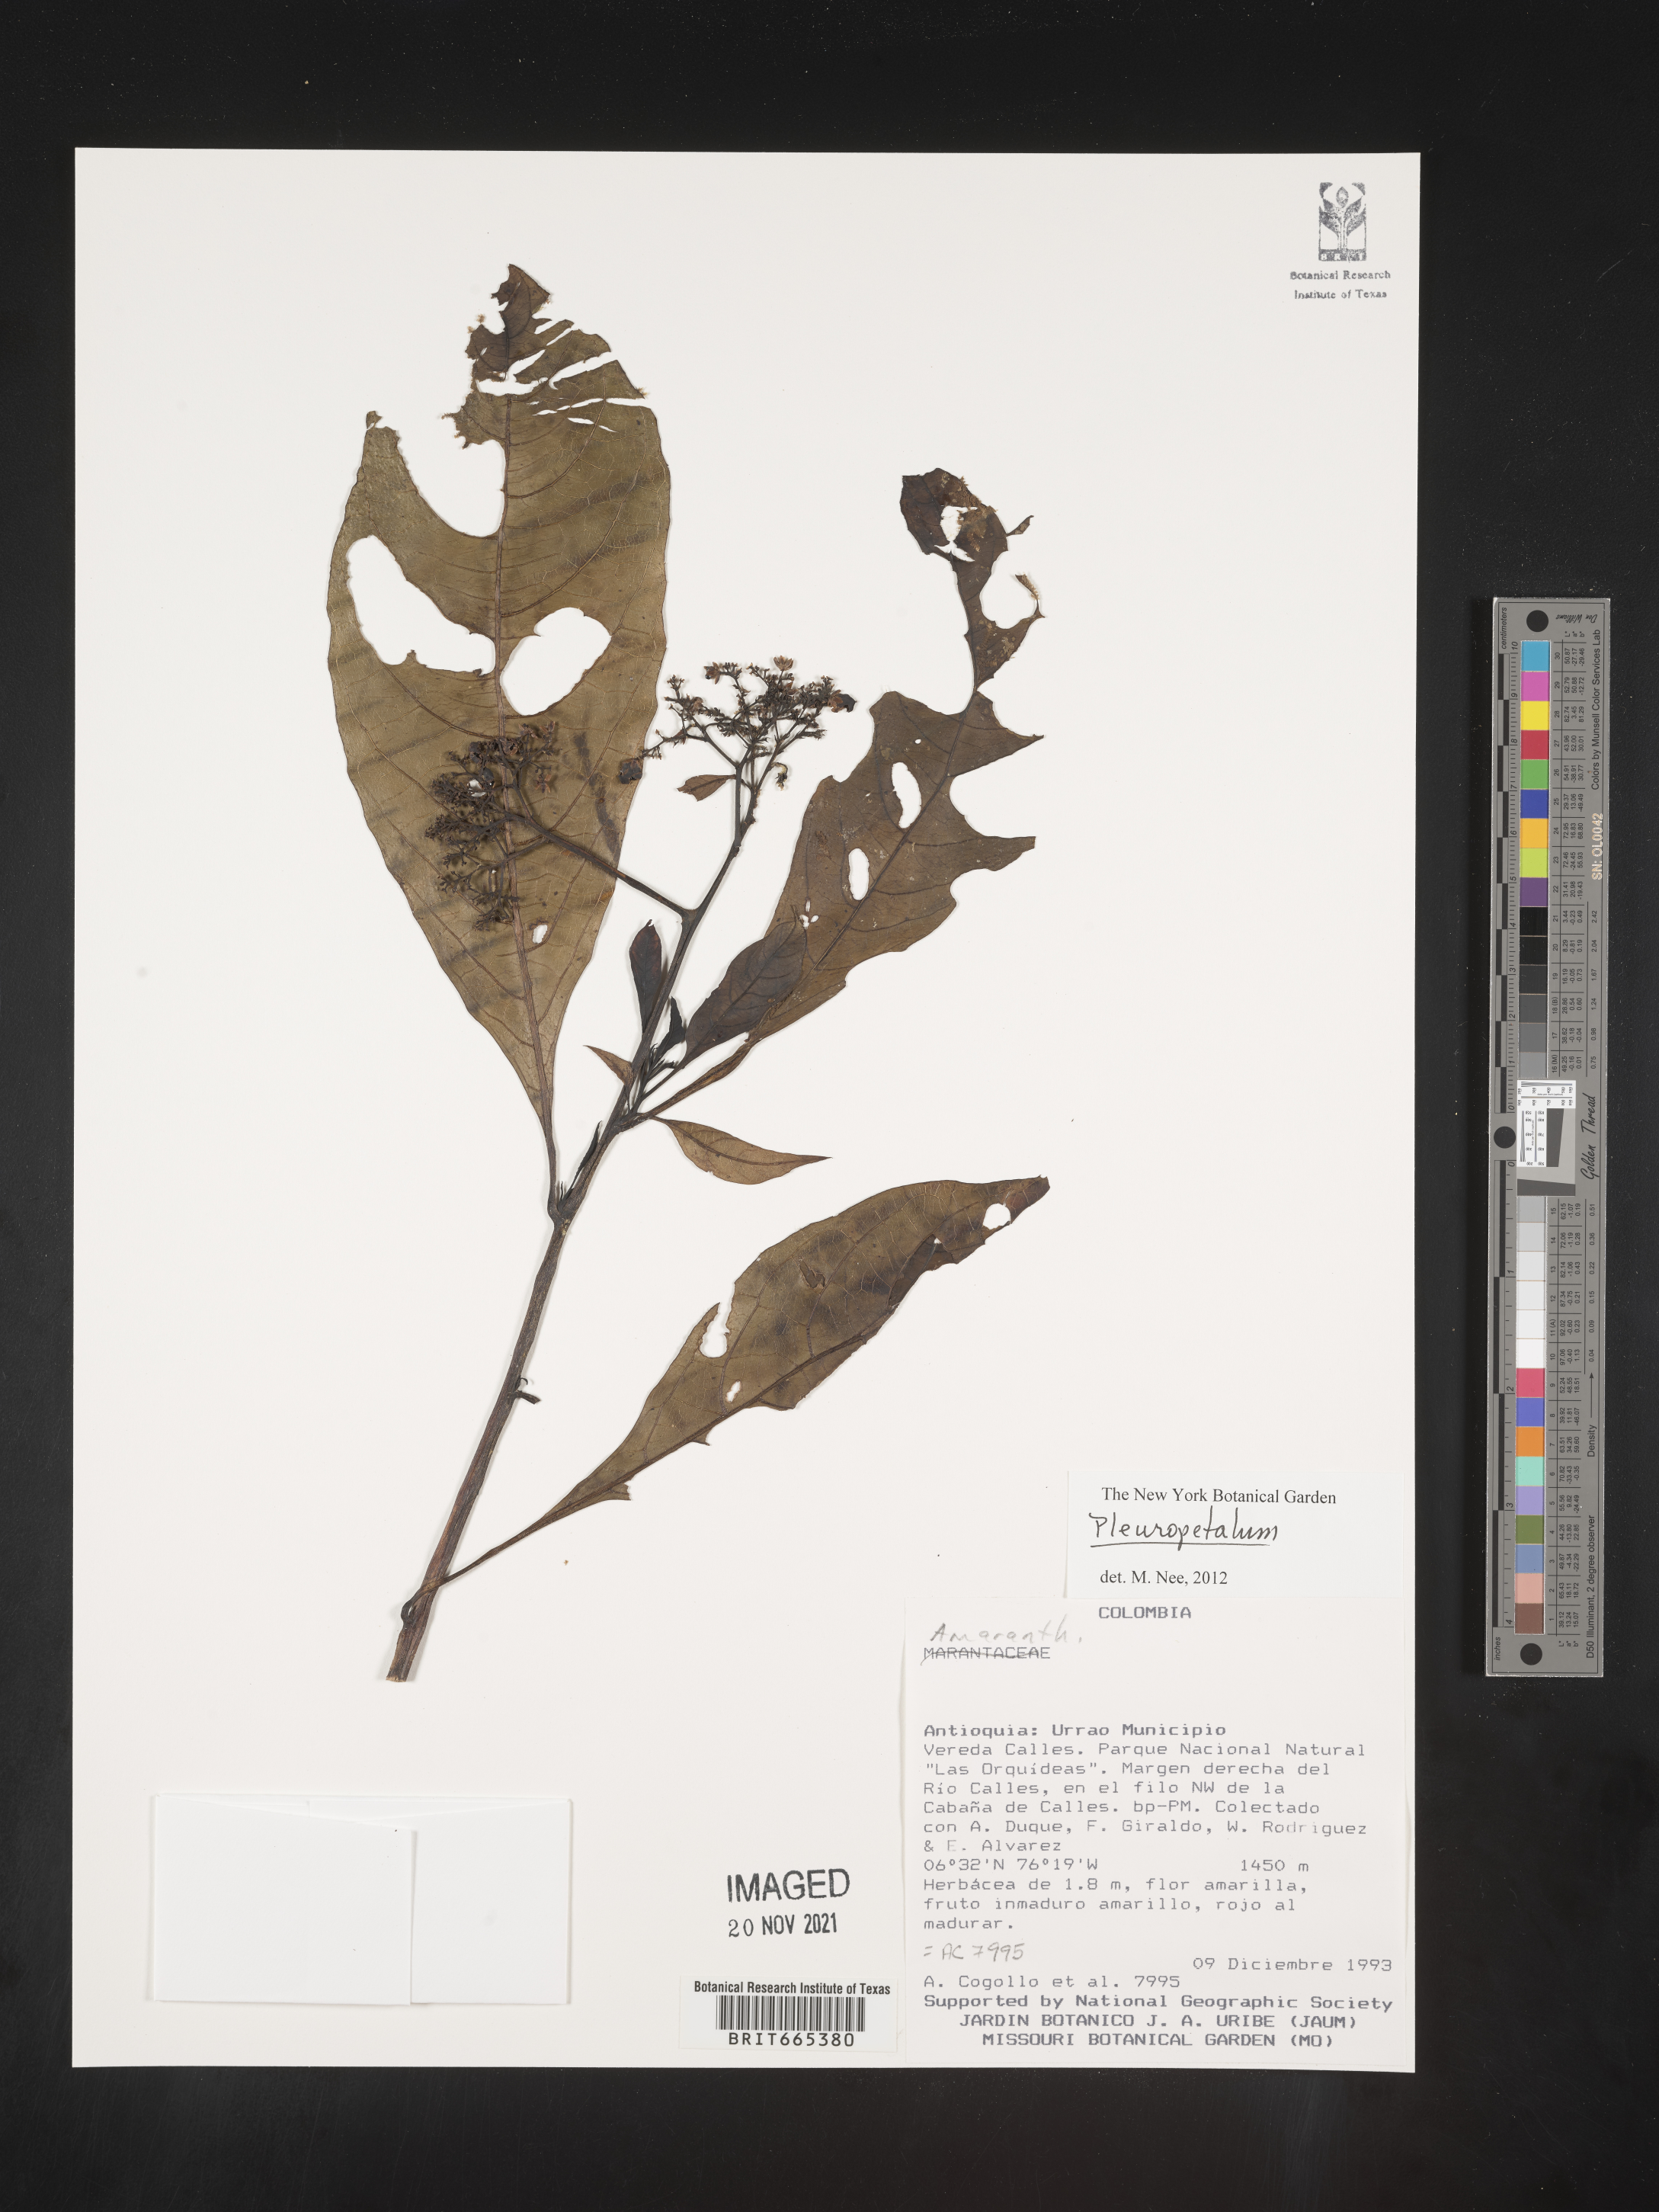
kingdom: Plantae
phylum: Tracheophyta
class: Magnoliopsida
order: Caryophyllales
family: Amaranthaceae
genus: Pleuropetalum
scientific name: Pleuropetalum
